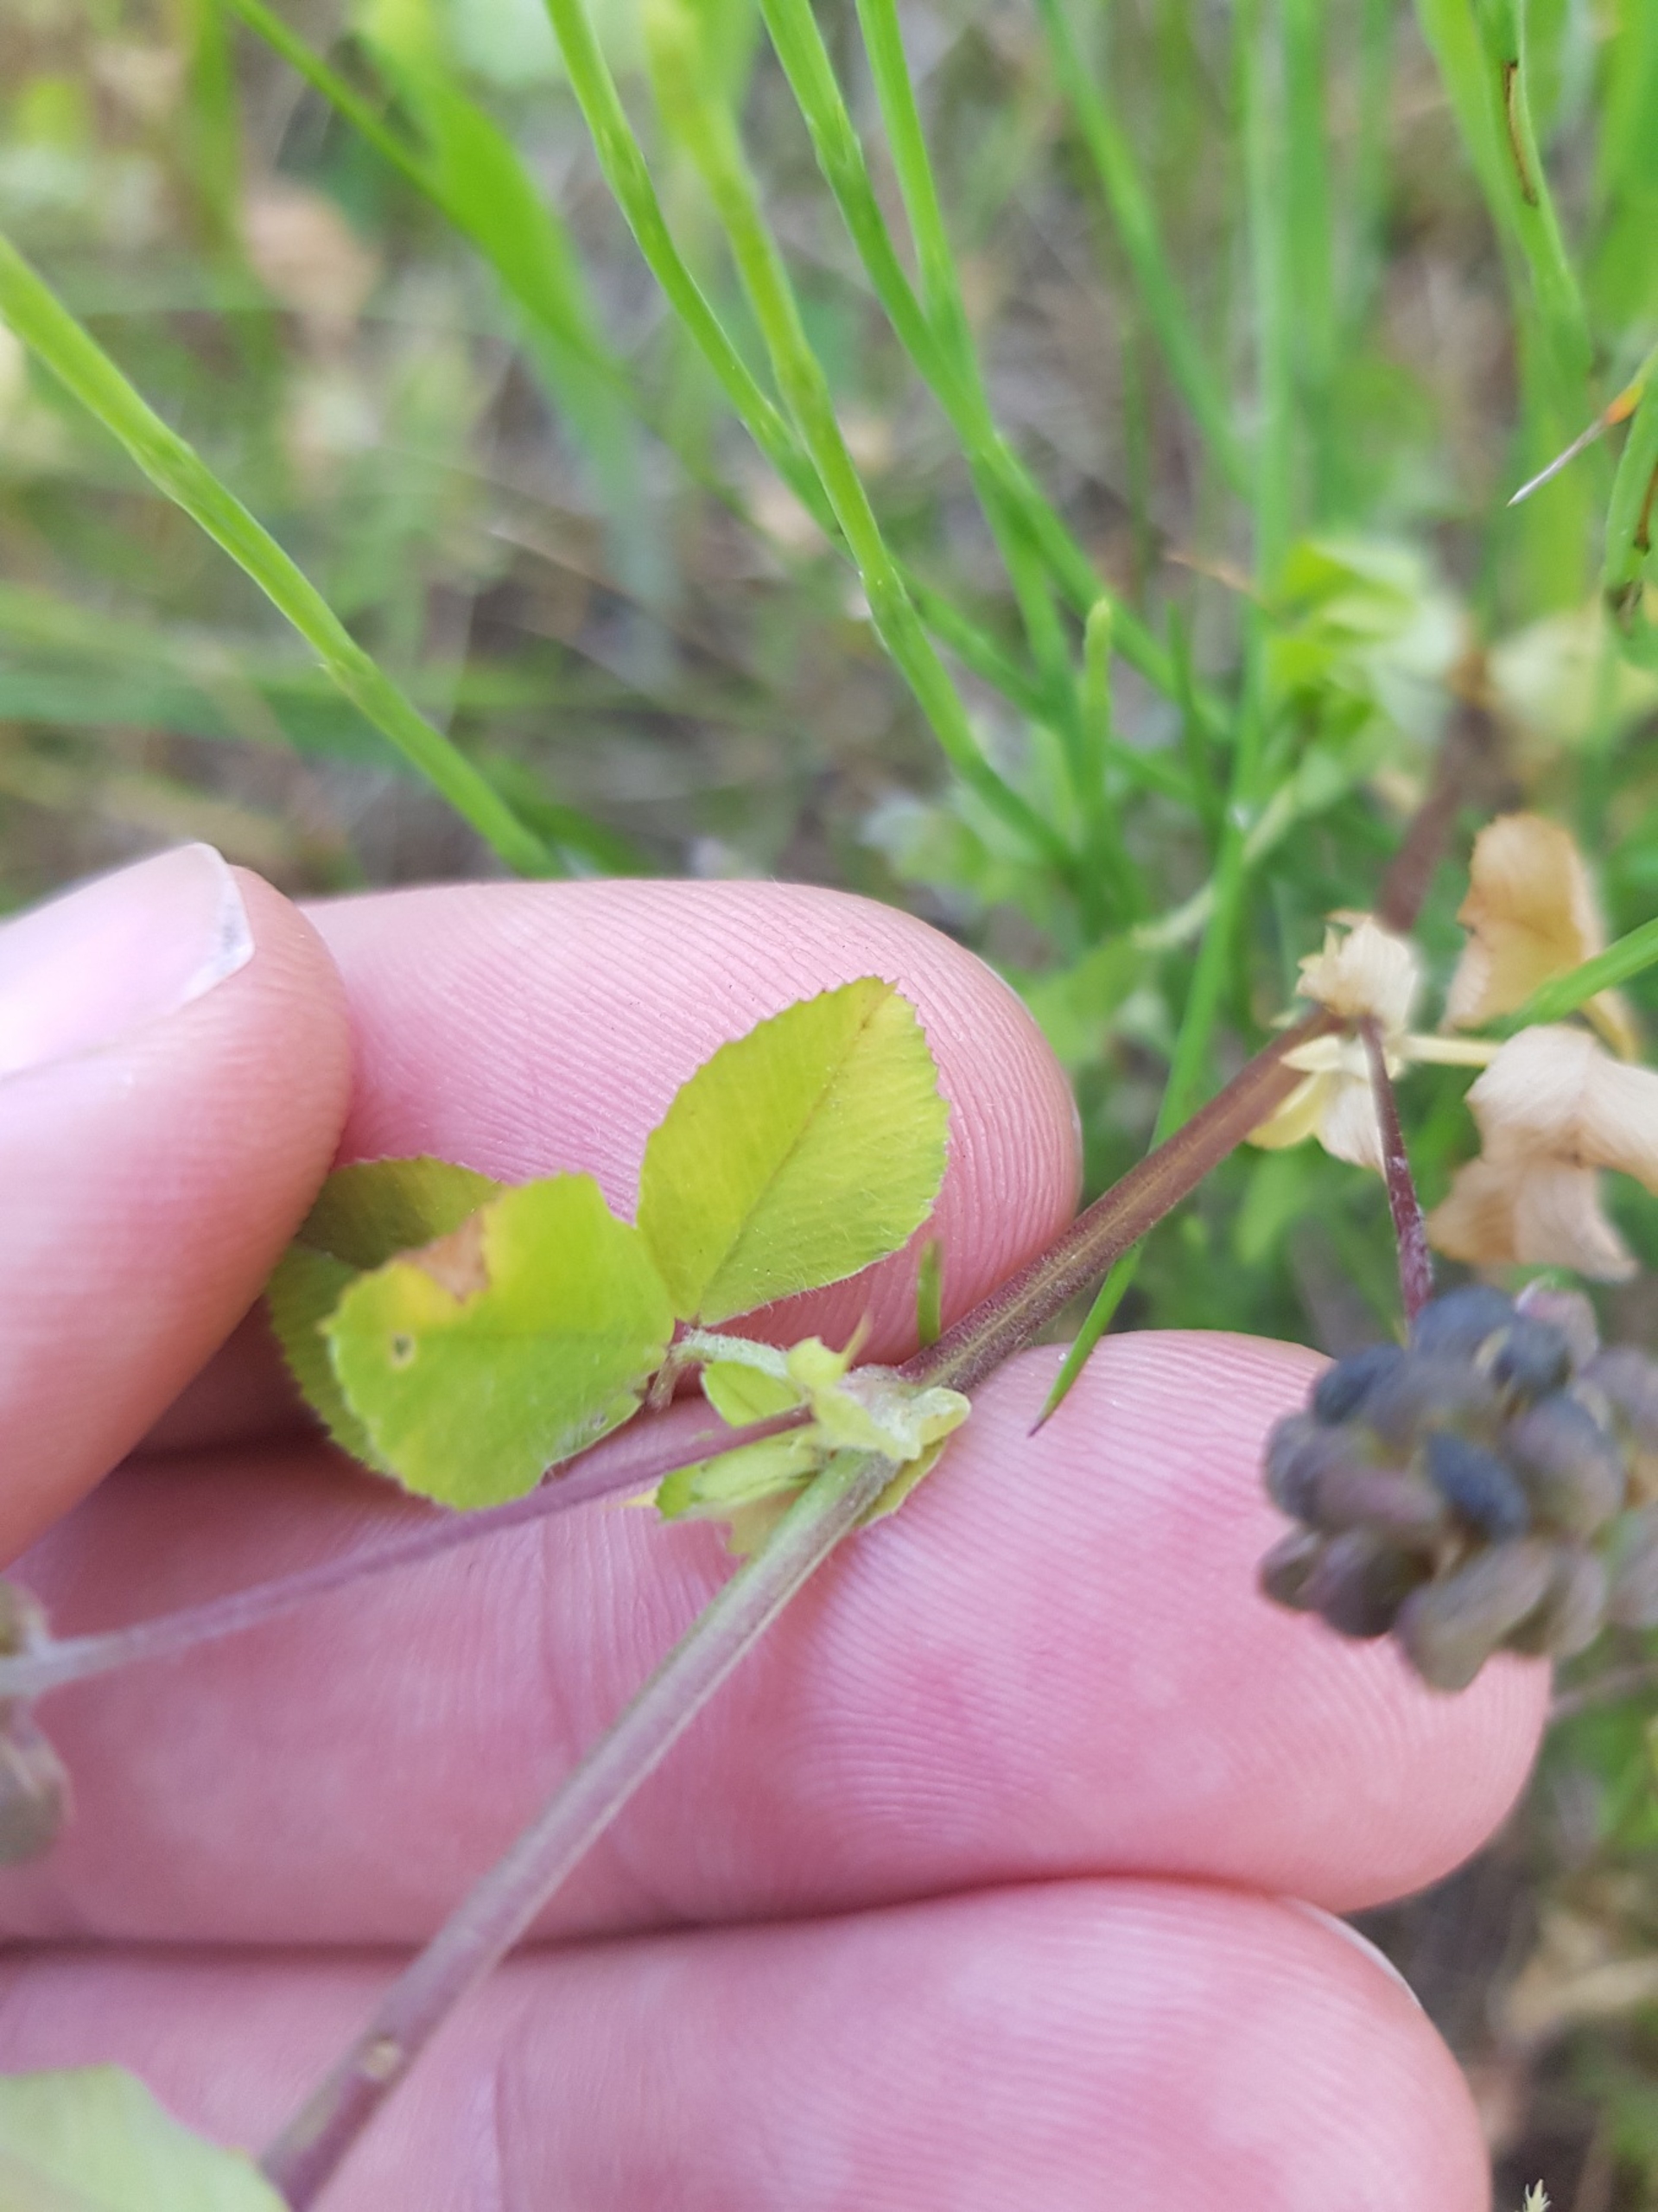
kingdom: Plantae
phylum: Tracheophyta
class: Magnoliopsida
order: Fabales
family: Fabaceae
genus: Medicago
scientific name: Medicago lupulina
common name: Humle-sneglebælg
